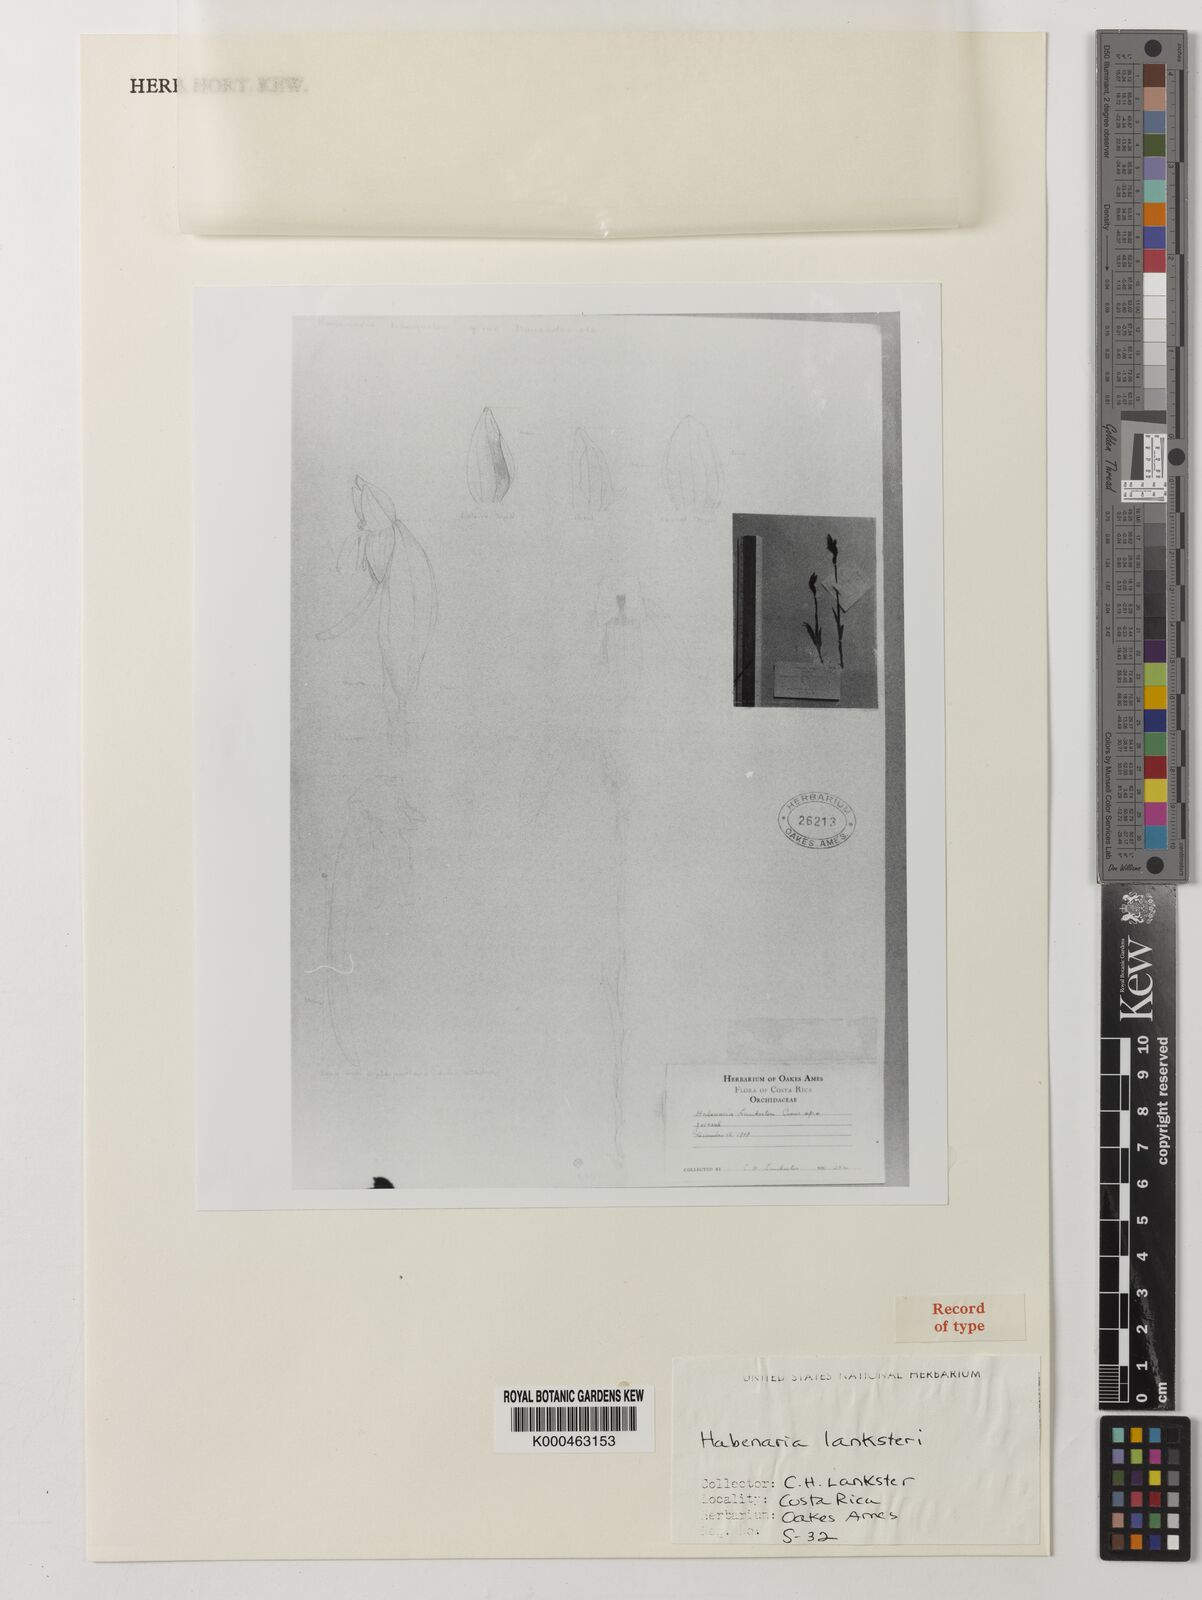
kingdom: Plantae
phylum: Tracheophyta
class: Liliopsida
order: Asparagales
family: Orchidaceae
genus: Habenaria
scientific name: Habenaria
